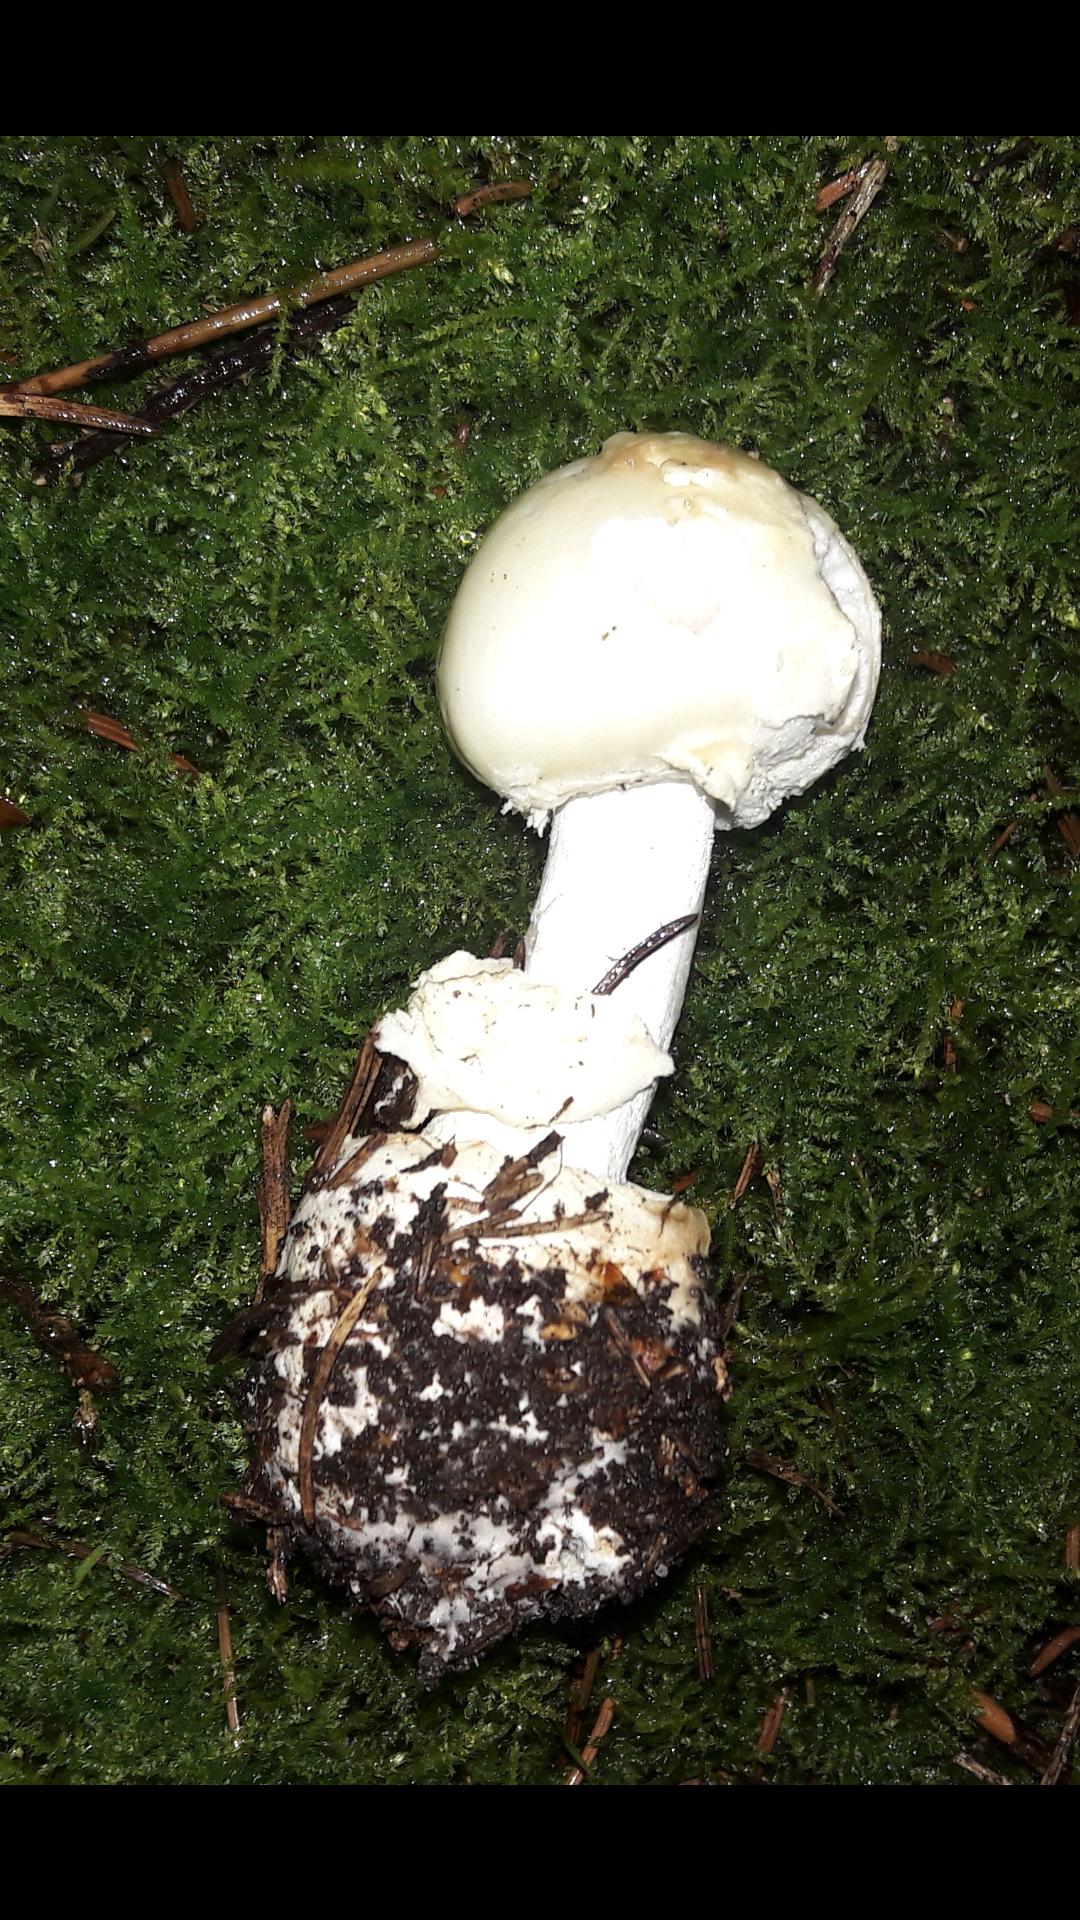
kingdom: Fungi
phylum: Basidiomycota
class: Agaricomycetes
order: Agaricales
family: Amanitaceae
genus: Amanita
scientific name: Amanita citrina
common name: kugleknoldet fluesvamp
